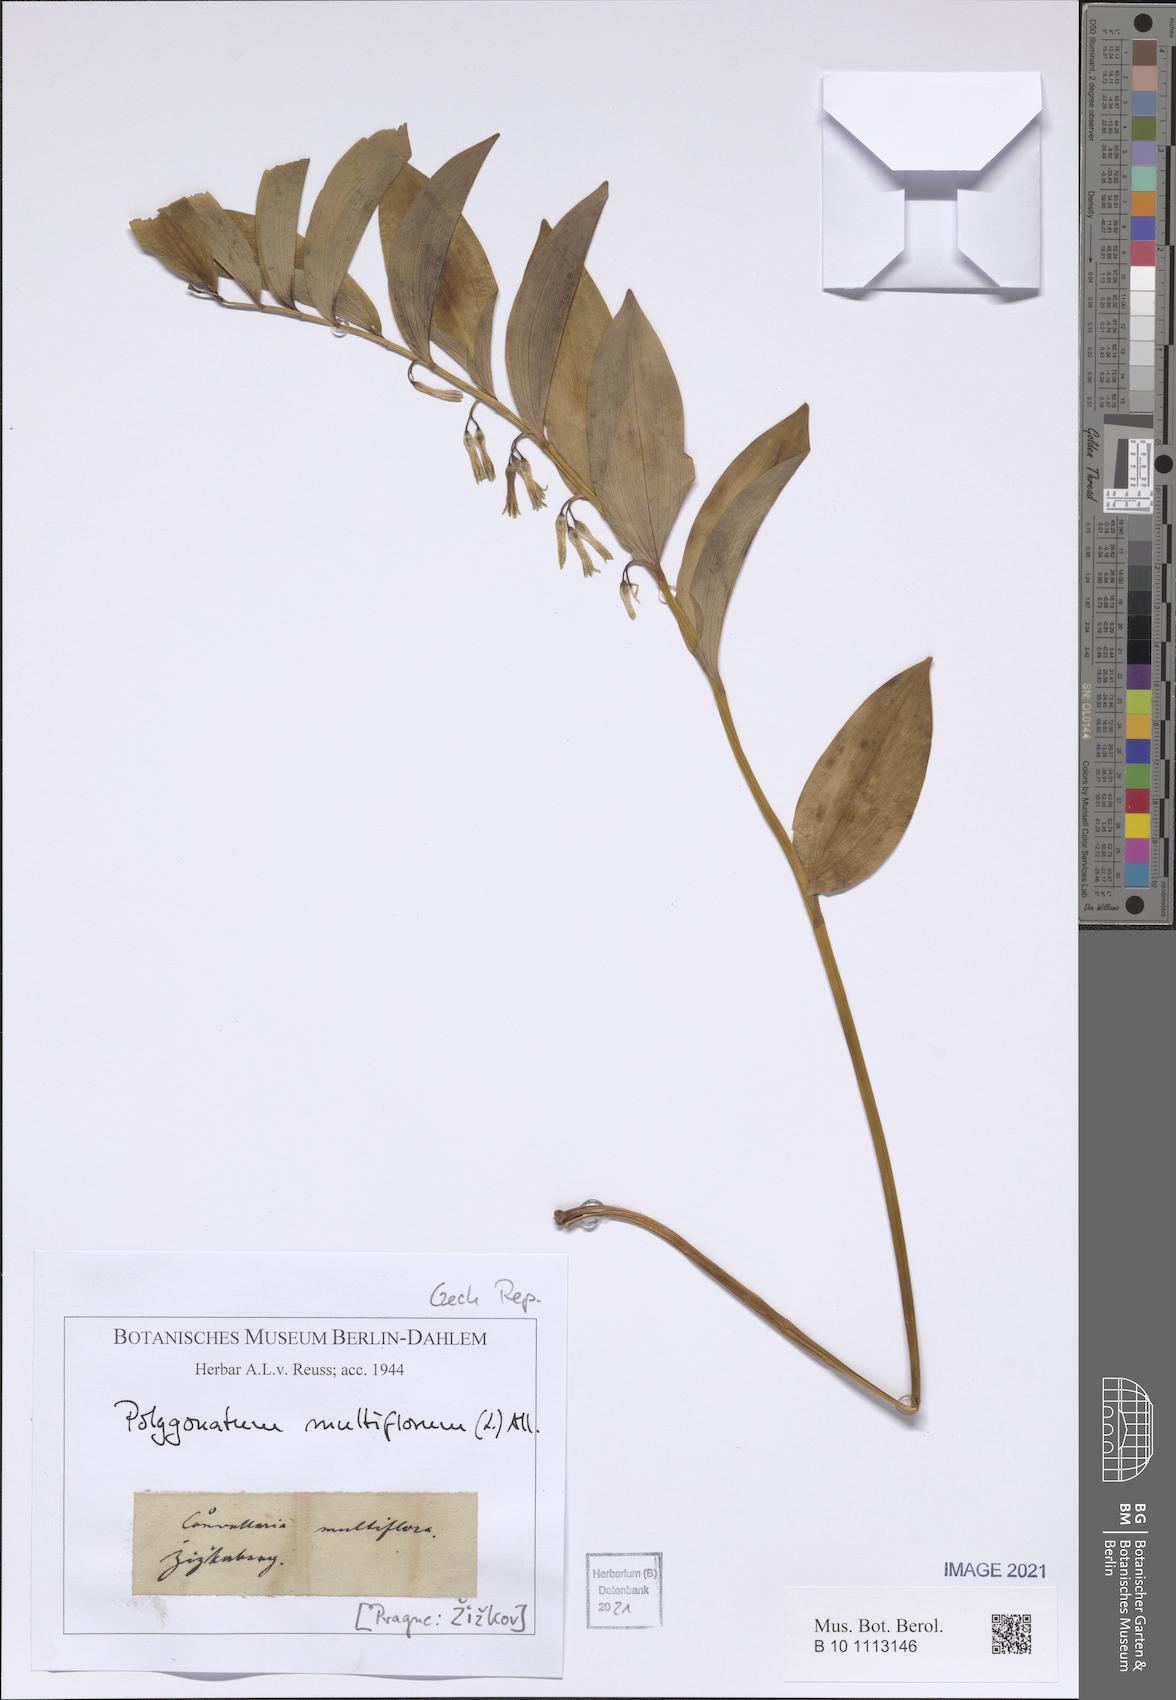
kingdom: Plantae
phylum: Tracheophyta
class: Liliopsida
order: Asparagales
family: Asparagaceae
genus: Polygonatum
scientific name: Polygonatum multiflorum
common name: Solomon's-seal
